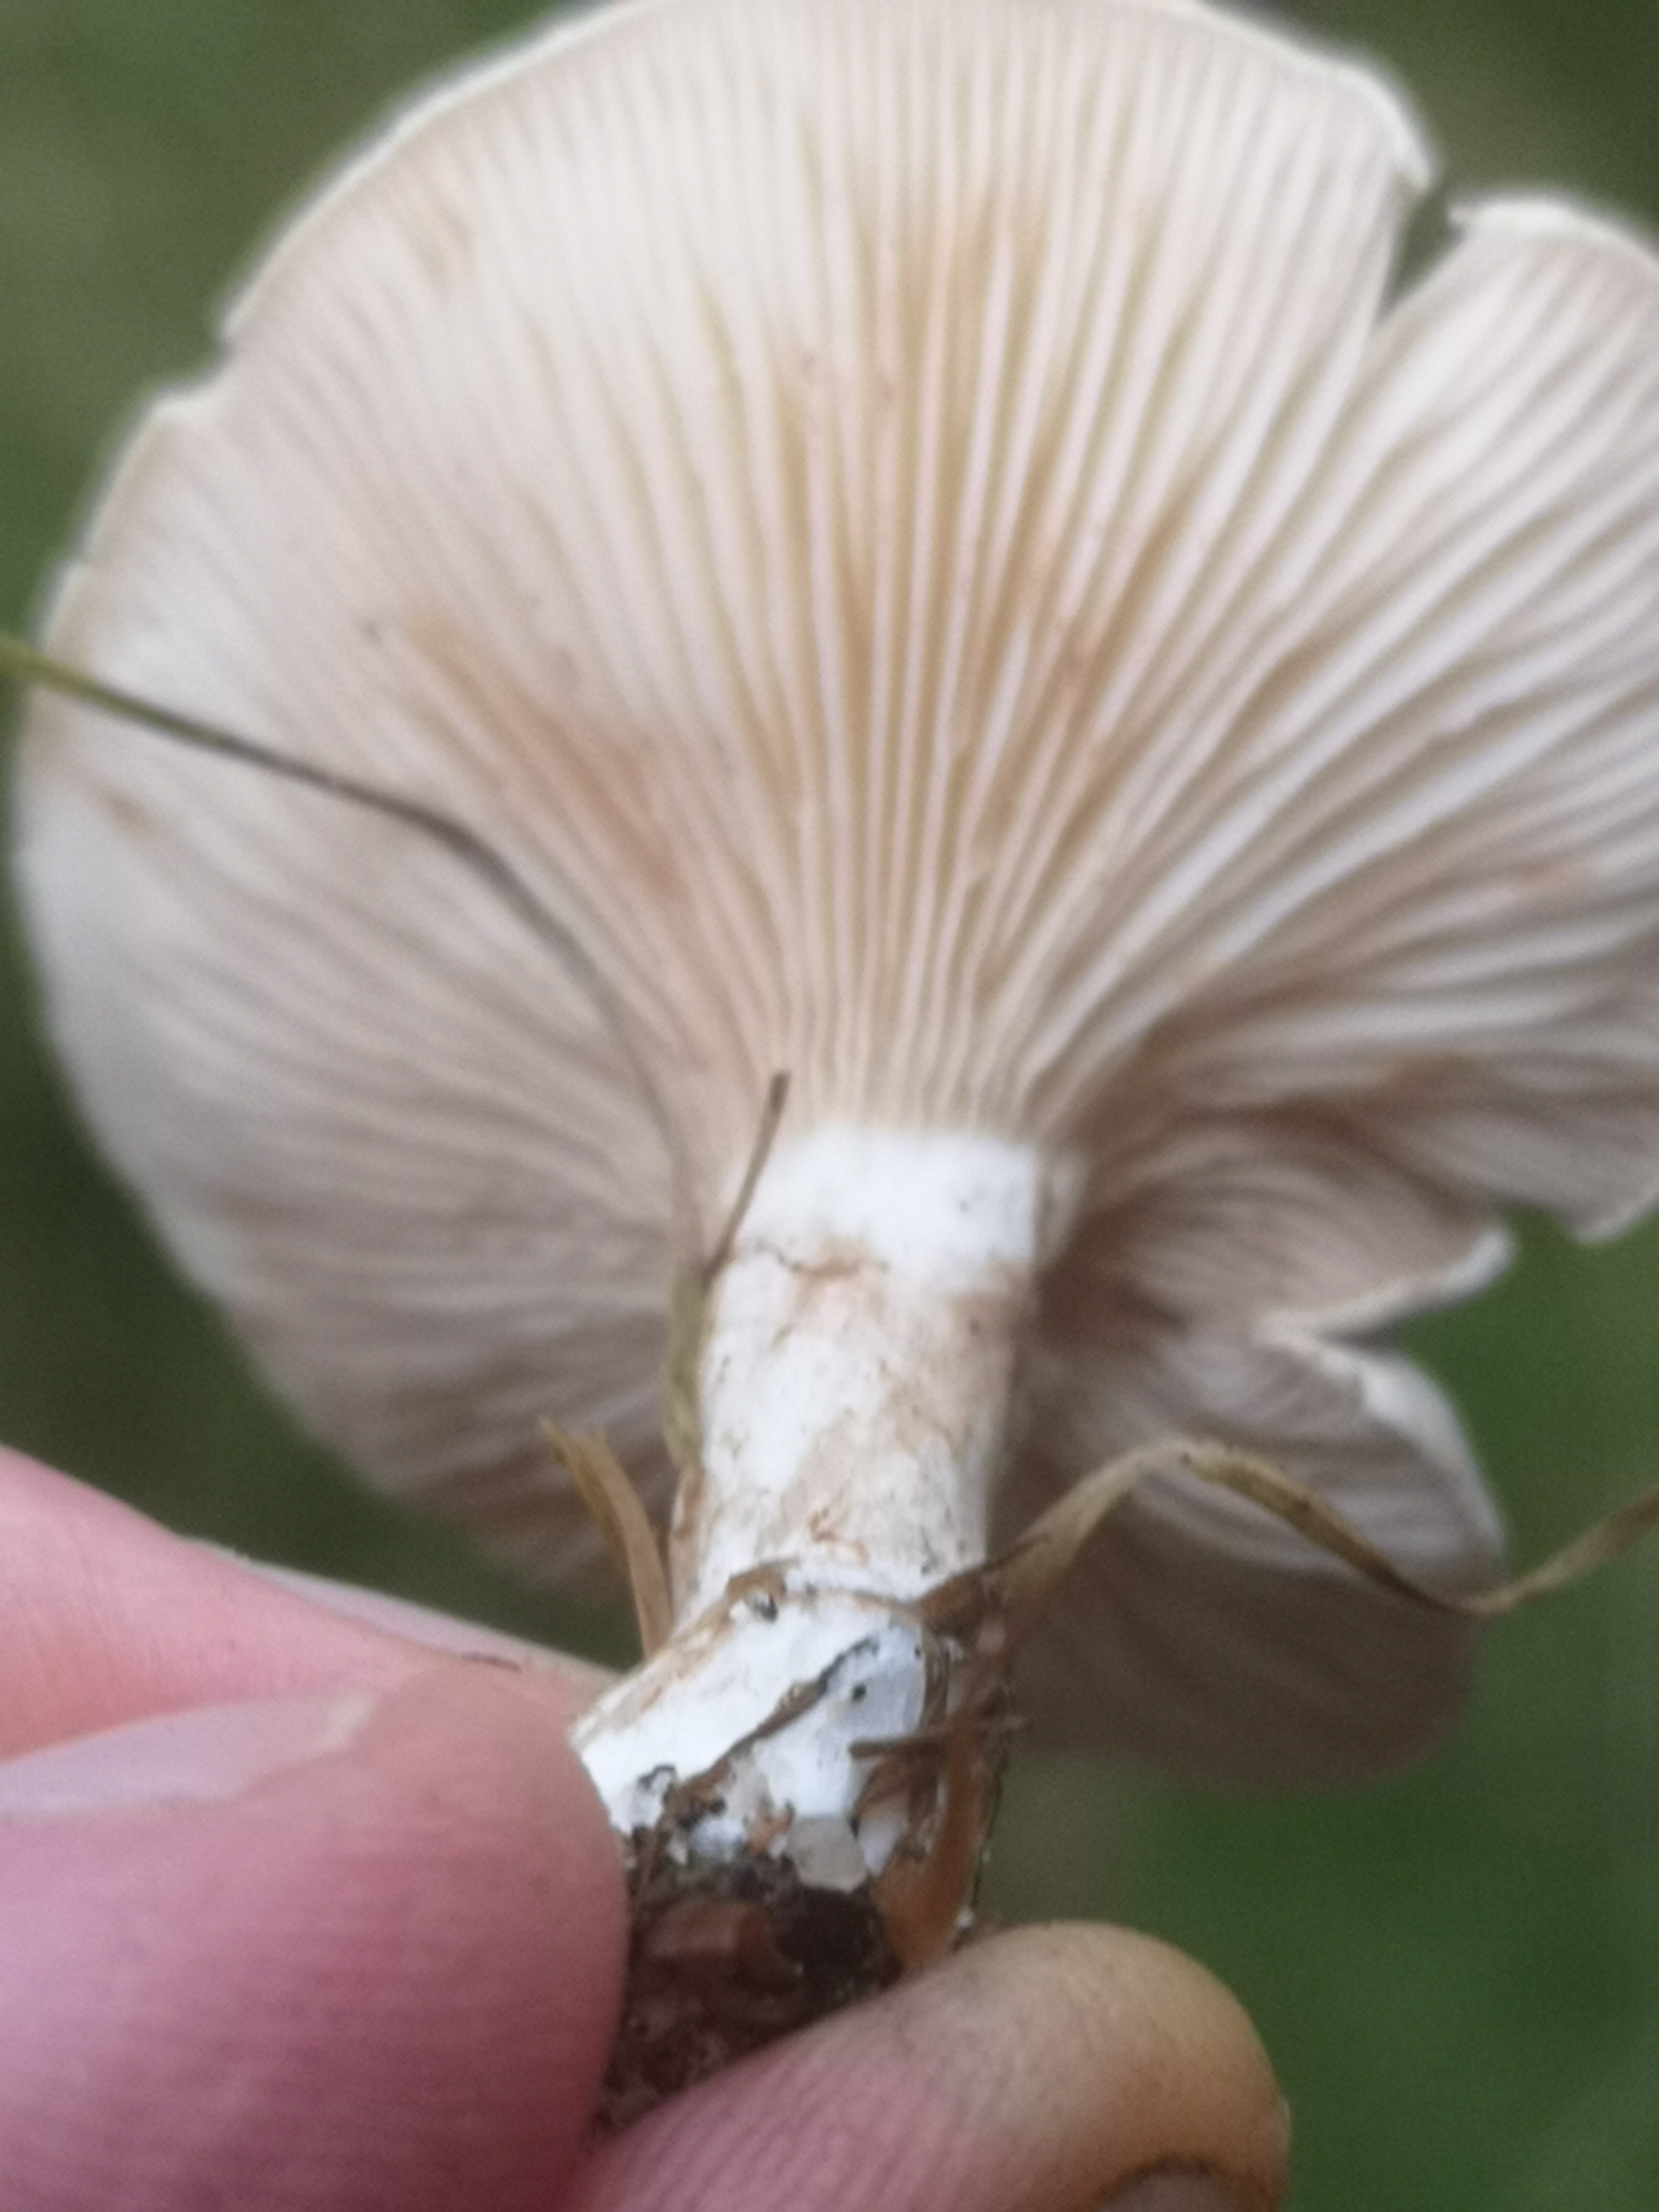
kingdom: Fungi
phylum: Basidiomycota
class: Agaricomycetes
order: Agaricales
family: Entolomataceae
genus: Clitopilus
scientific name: Clitopilus prunulus
